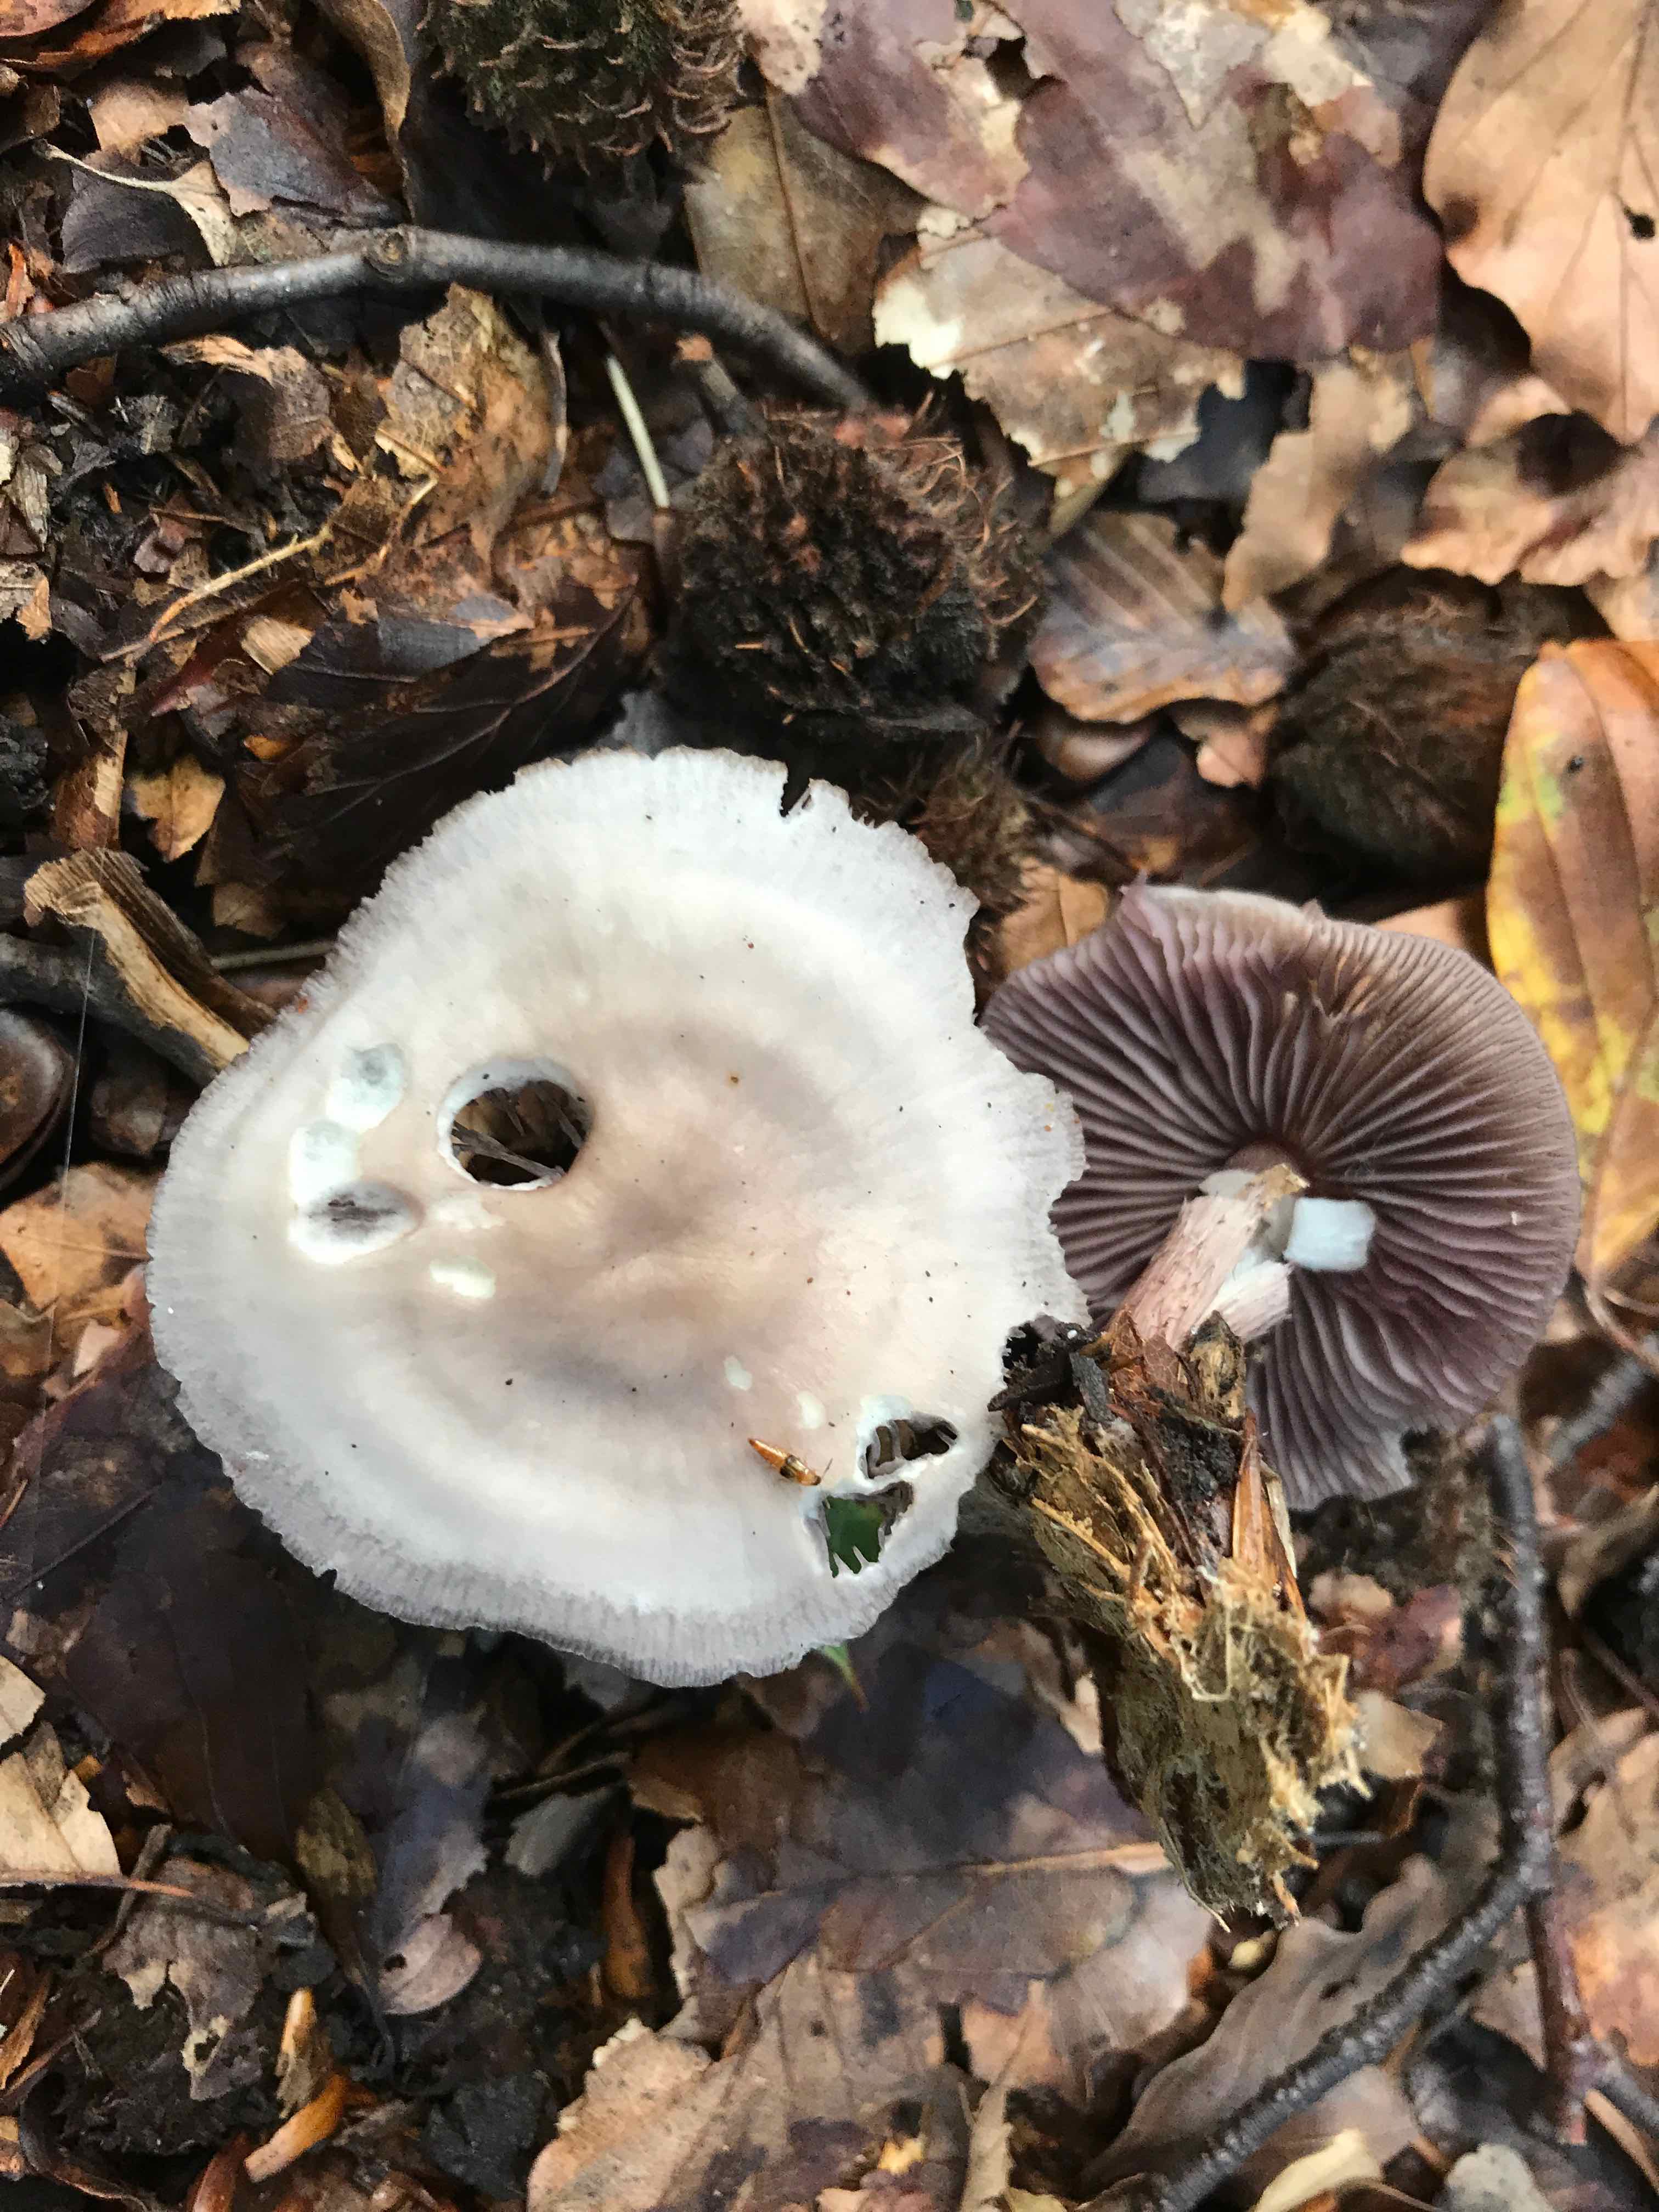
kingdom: Fungi
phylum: Basidiomycota
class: Agaricomycetes
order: Agaricales
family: Mycenaceae
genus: Mycena
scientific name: Mycena pelianthina
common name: mørkbladet huesvamp
